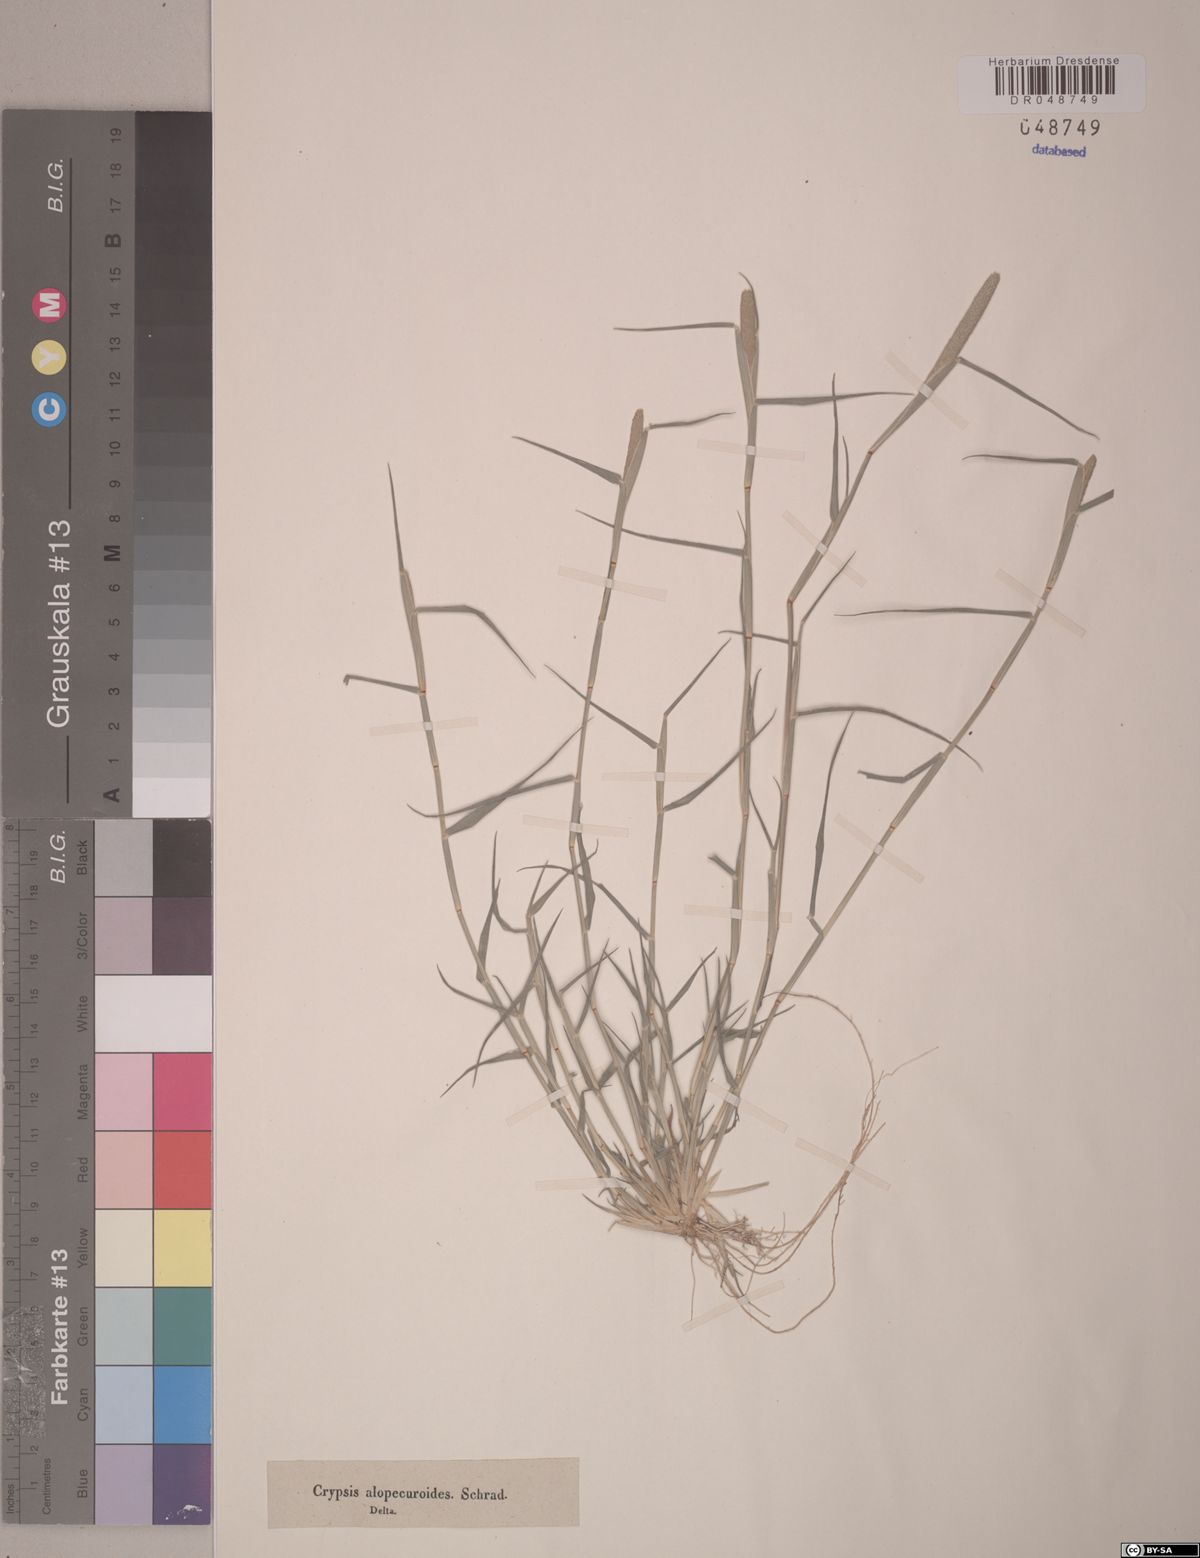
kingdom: Plantae
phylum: Tracheophyta
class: Liliopsida
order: Poales
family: Poaceae
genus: Sporobolus
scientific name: Sporobolus alopecuroides
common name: Foxtail pricklegrass
